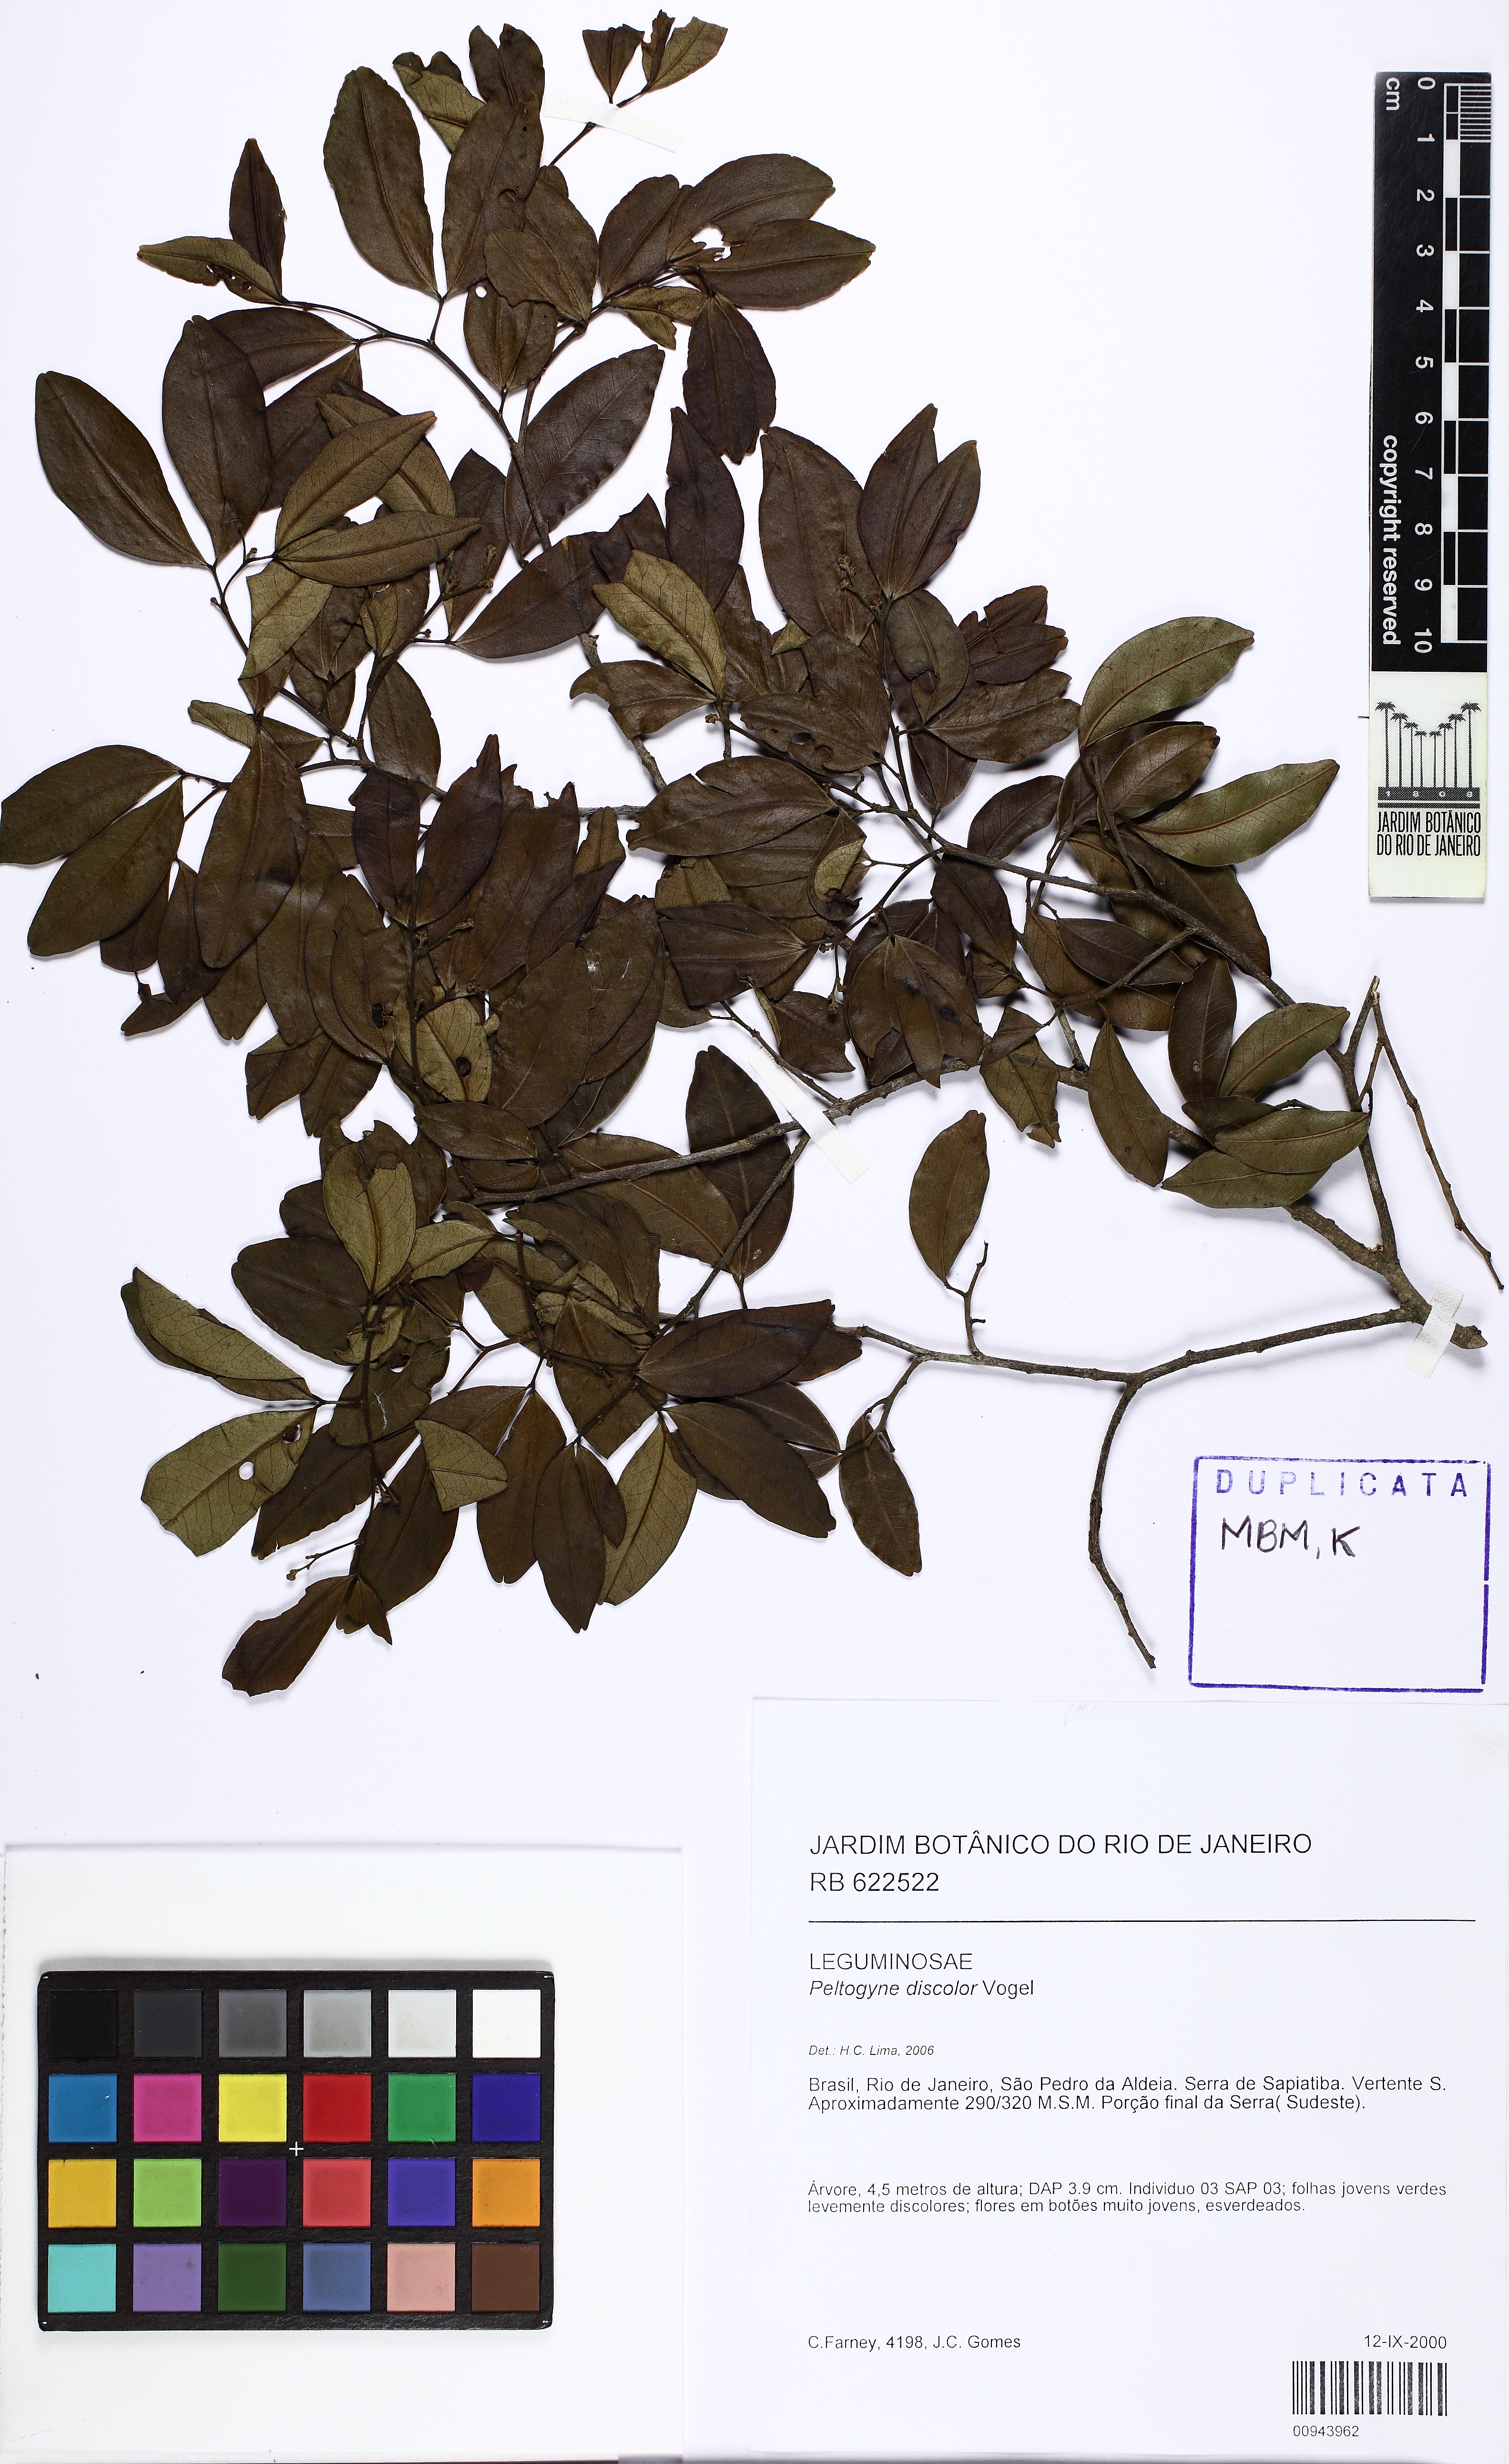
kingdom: Plantae
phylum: Tracheophyta
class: Magnoliopsida
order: Fabales
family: Fabaceae
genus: Peltogyne
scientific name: Peltogyne discolor
